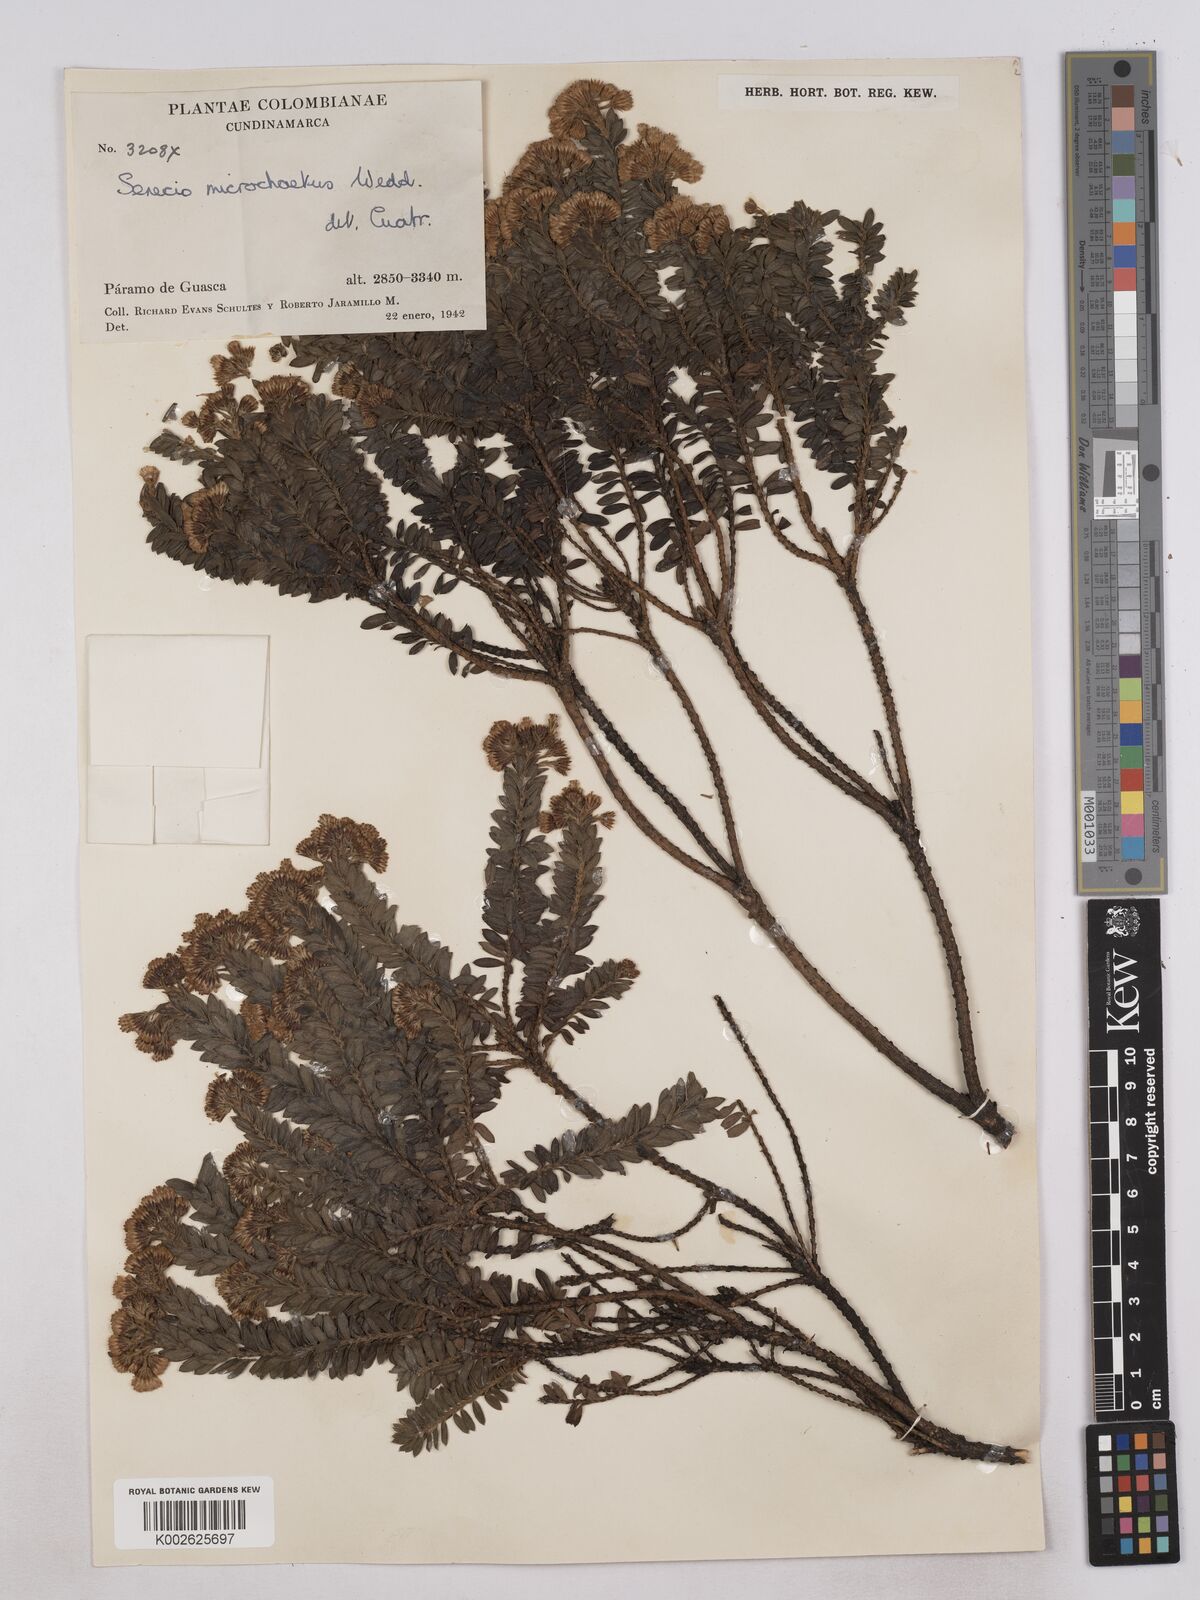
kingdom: Plantae
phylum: Tracheophyta
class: Magnoliopsida
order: Asterales
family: Asteraceae
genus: Monticalia
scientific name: Monticalia corymbosa
